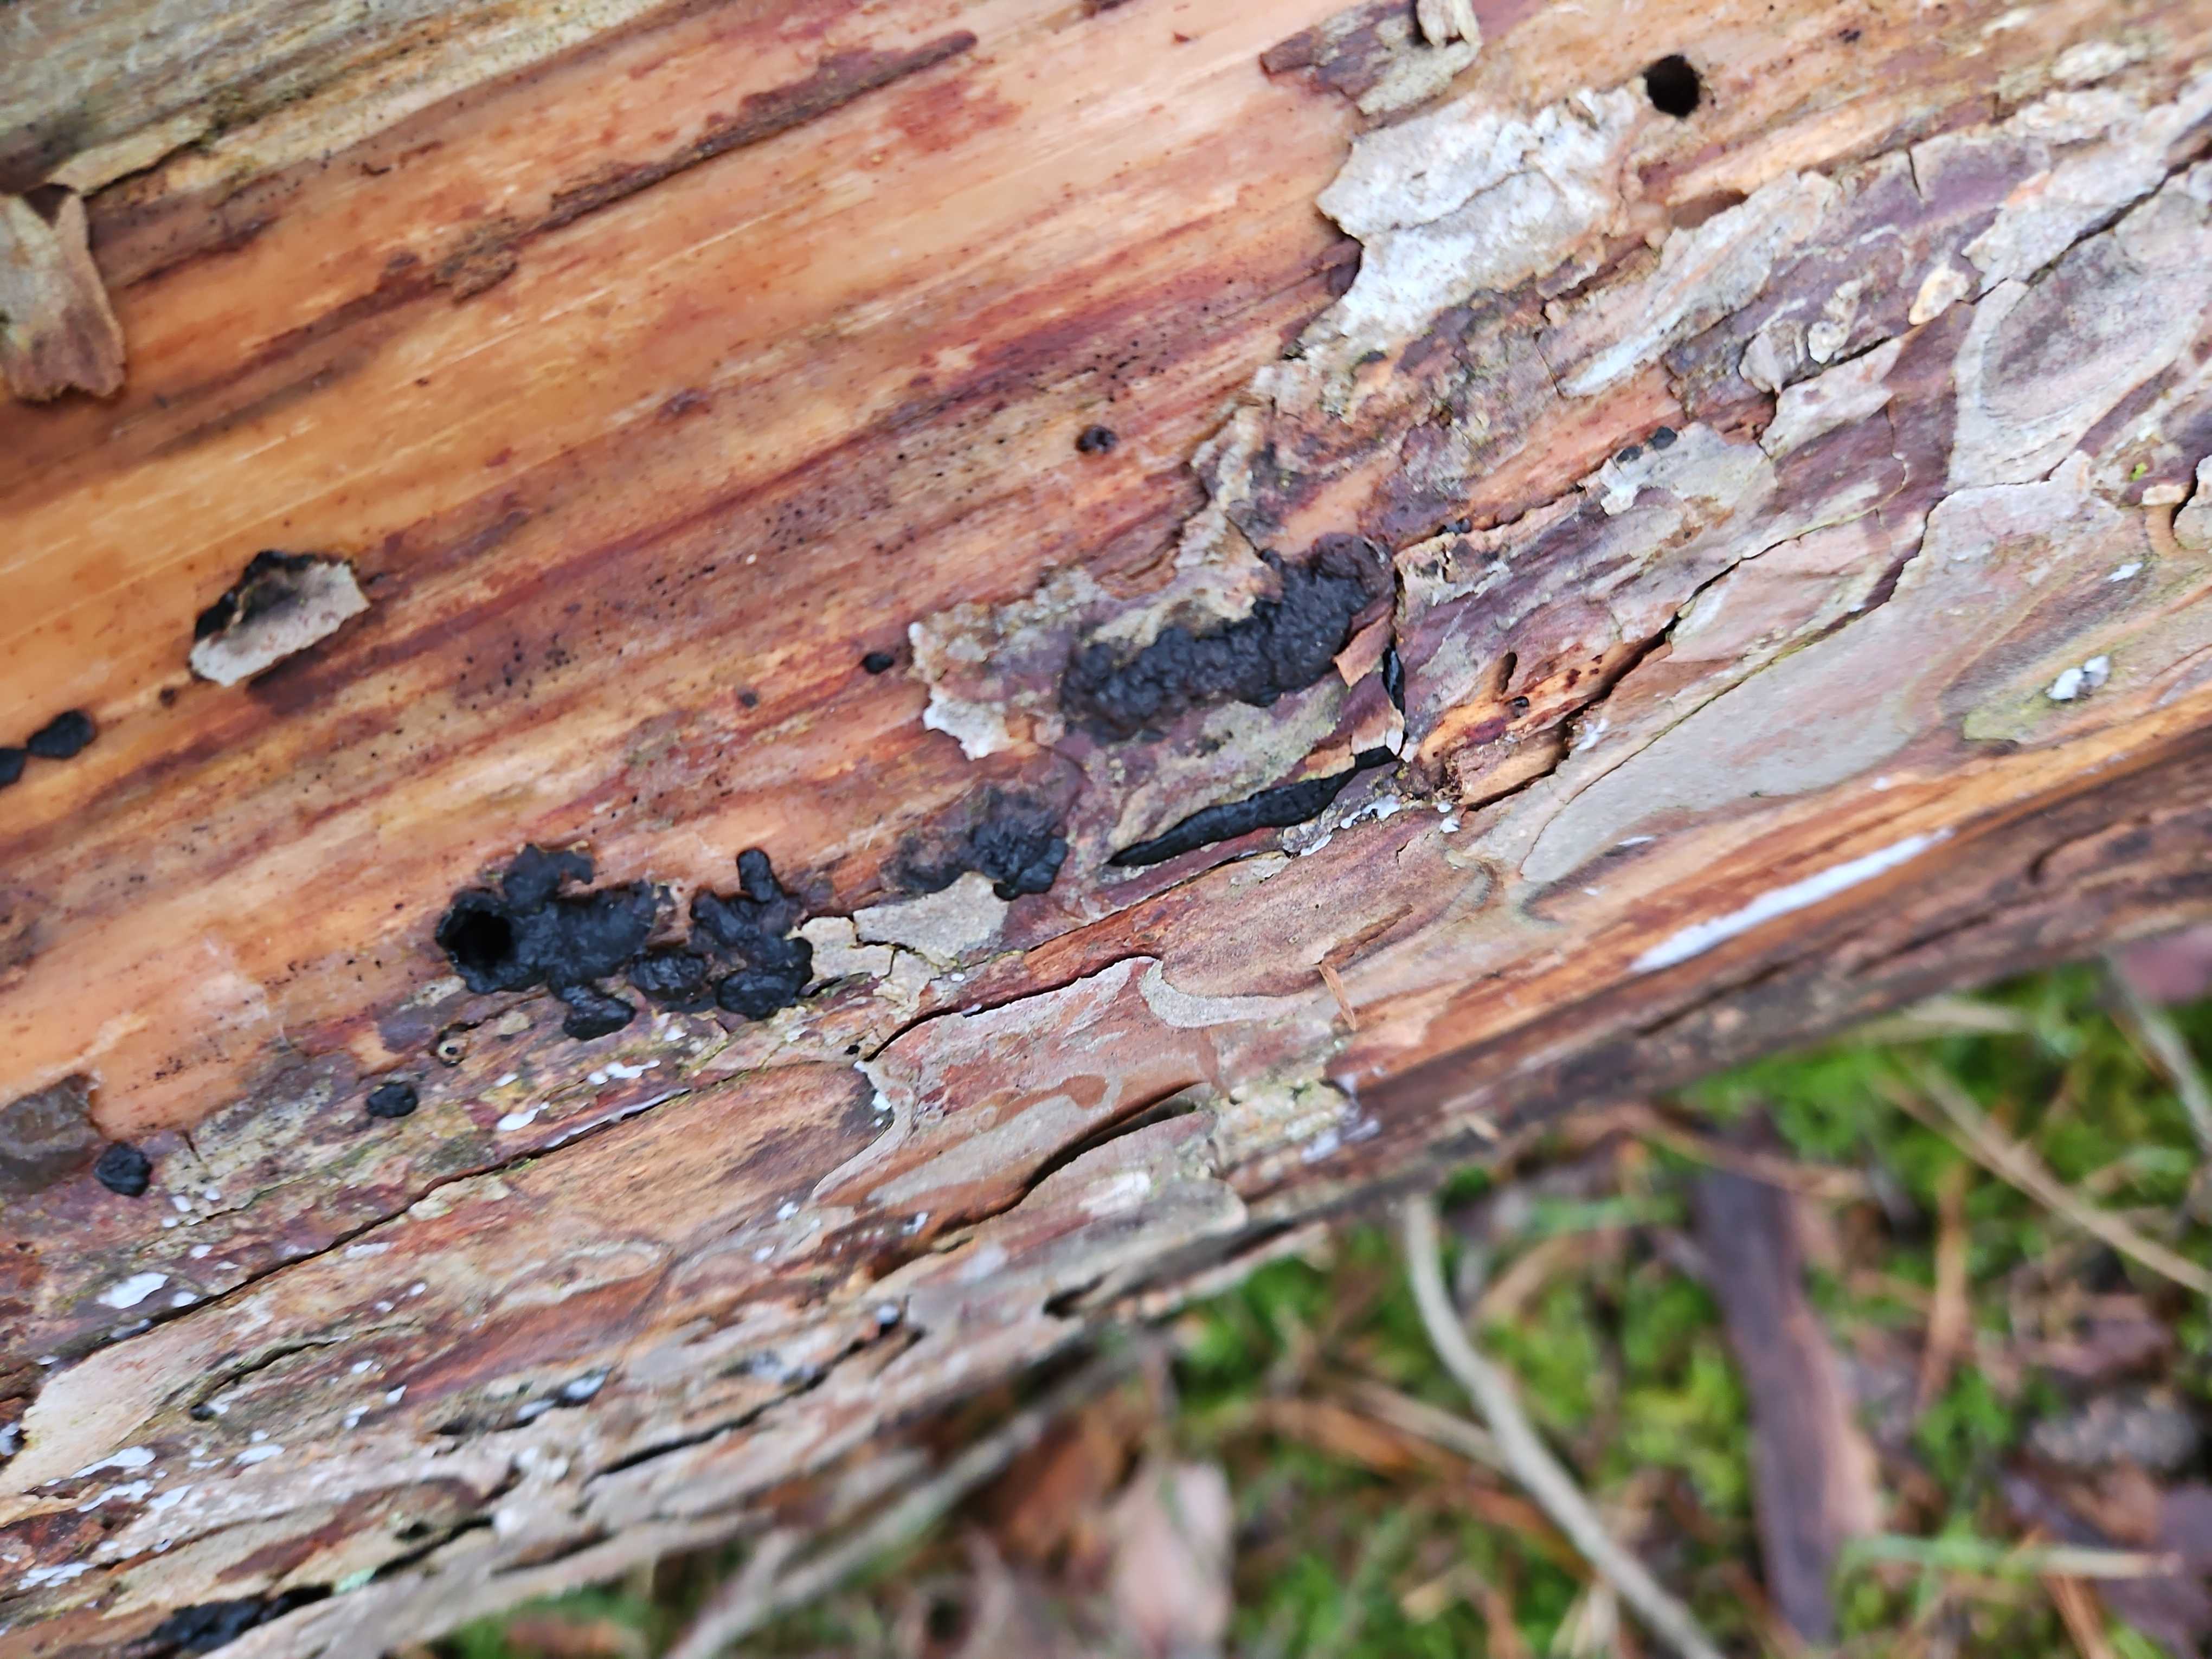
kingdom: Fungi
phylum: Basidiomycota
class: Agaricomycetes
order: Auriculariales
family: Auriculariaceae
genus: Exidia
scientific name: Exidia pithya
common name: gran-bævretop
